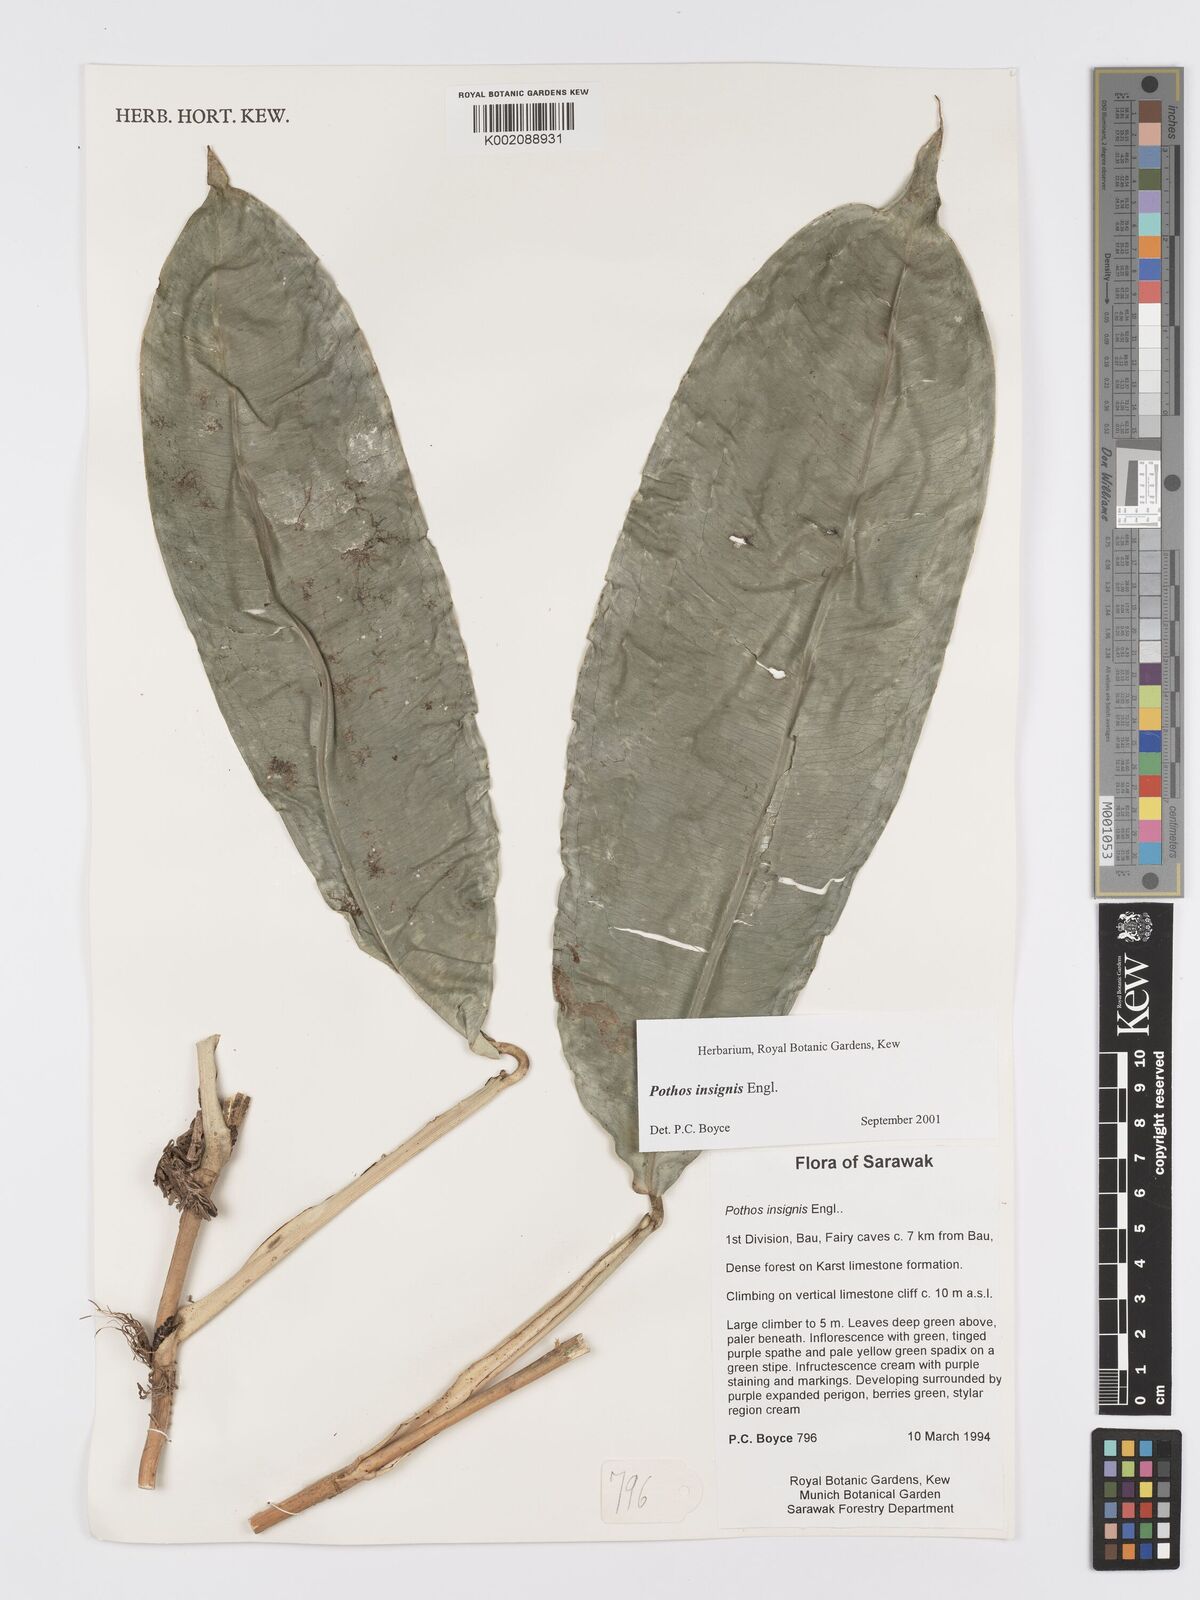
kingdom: Plantae
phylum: Tracheophyta
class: Liliopsida
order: Alismatales
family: Araceae
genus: Pothos
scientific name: Pothos insignis
